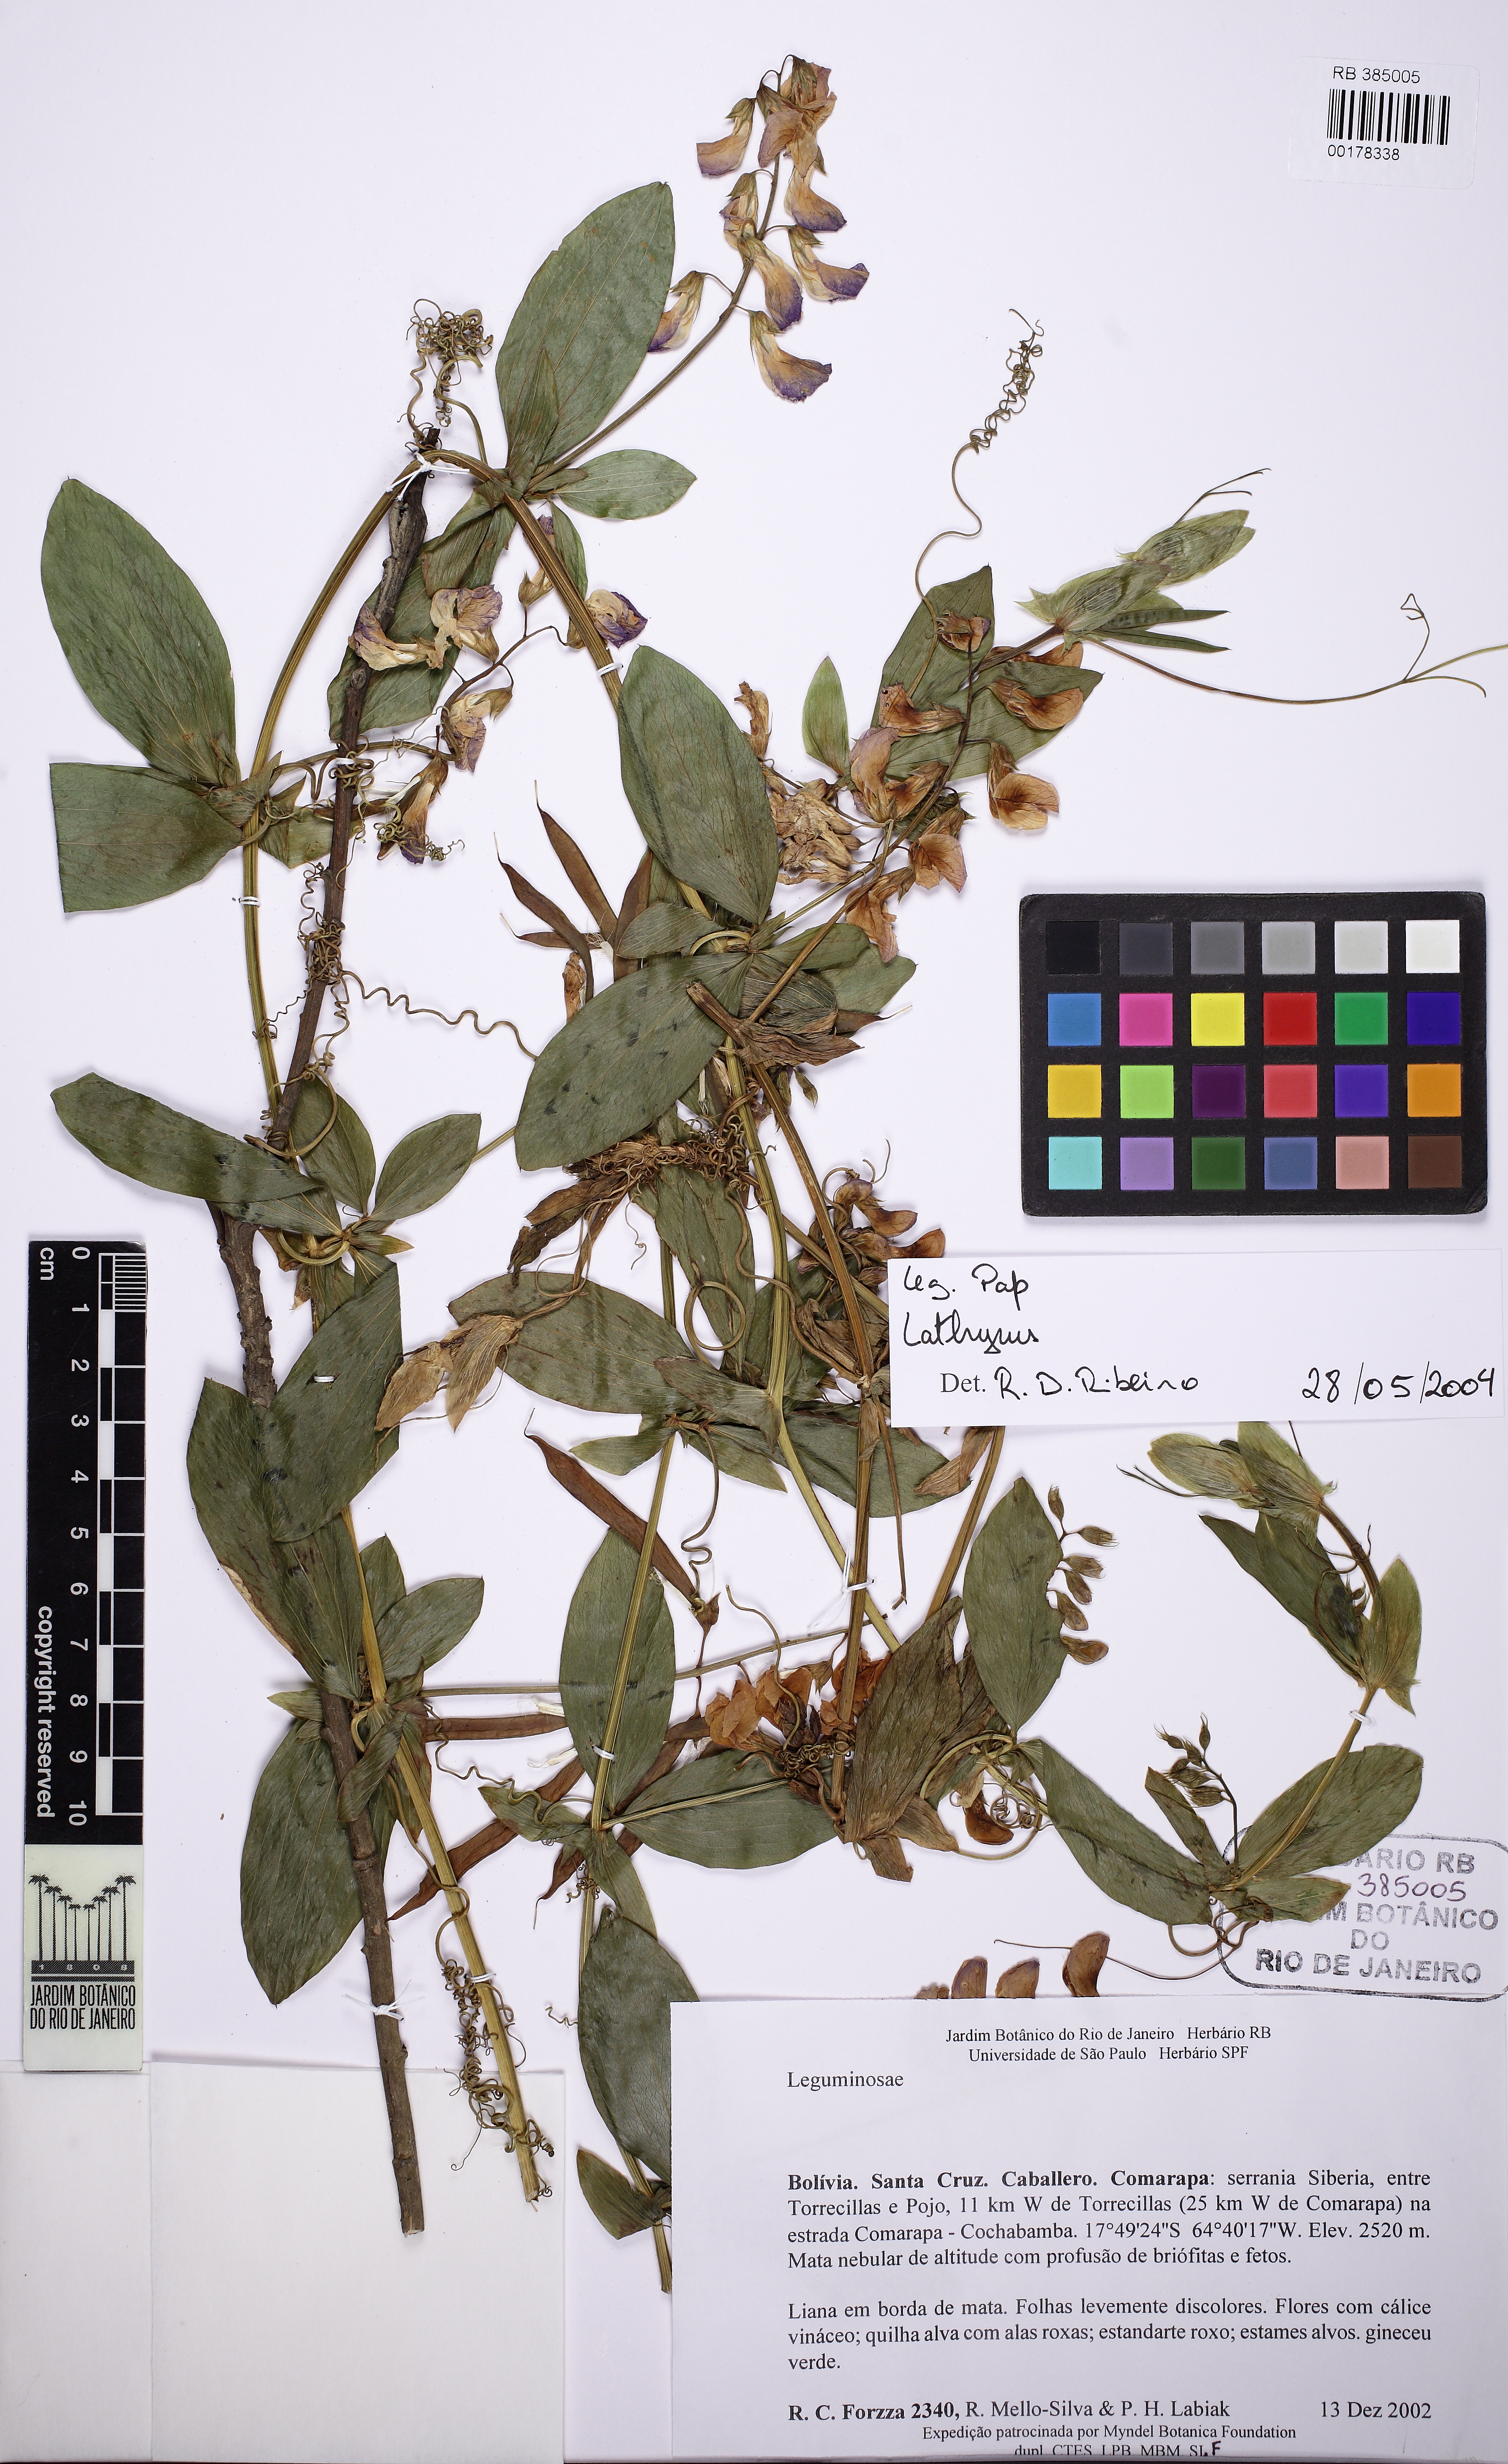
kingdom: Plantae
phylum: Tracheophyta
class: Magnoliopsida
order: Fabales
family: Fabaceae
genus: Lathyrus
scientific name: Lathyrus
